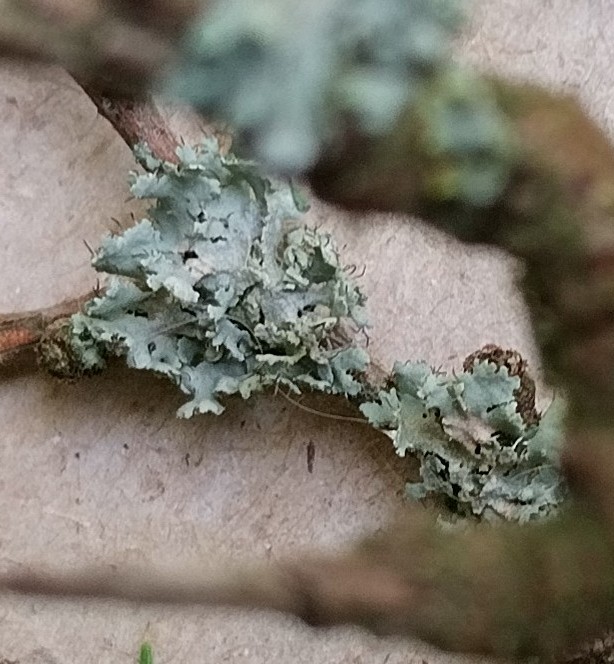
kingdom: Fungi
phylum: Ascomycota
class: Lecanoromycetes
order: Caliciales
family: Physciaceae
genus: Physcia
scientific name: Physcia
